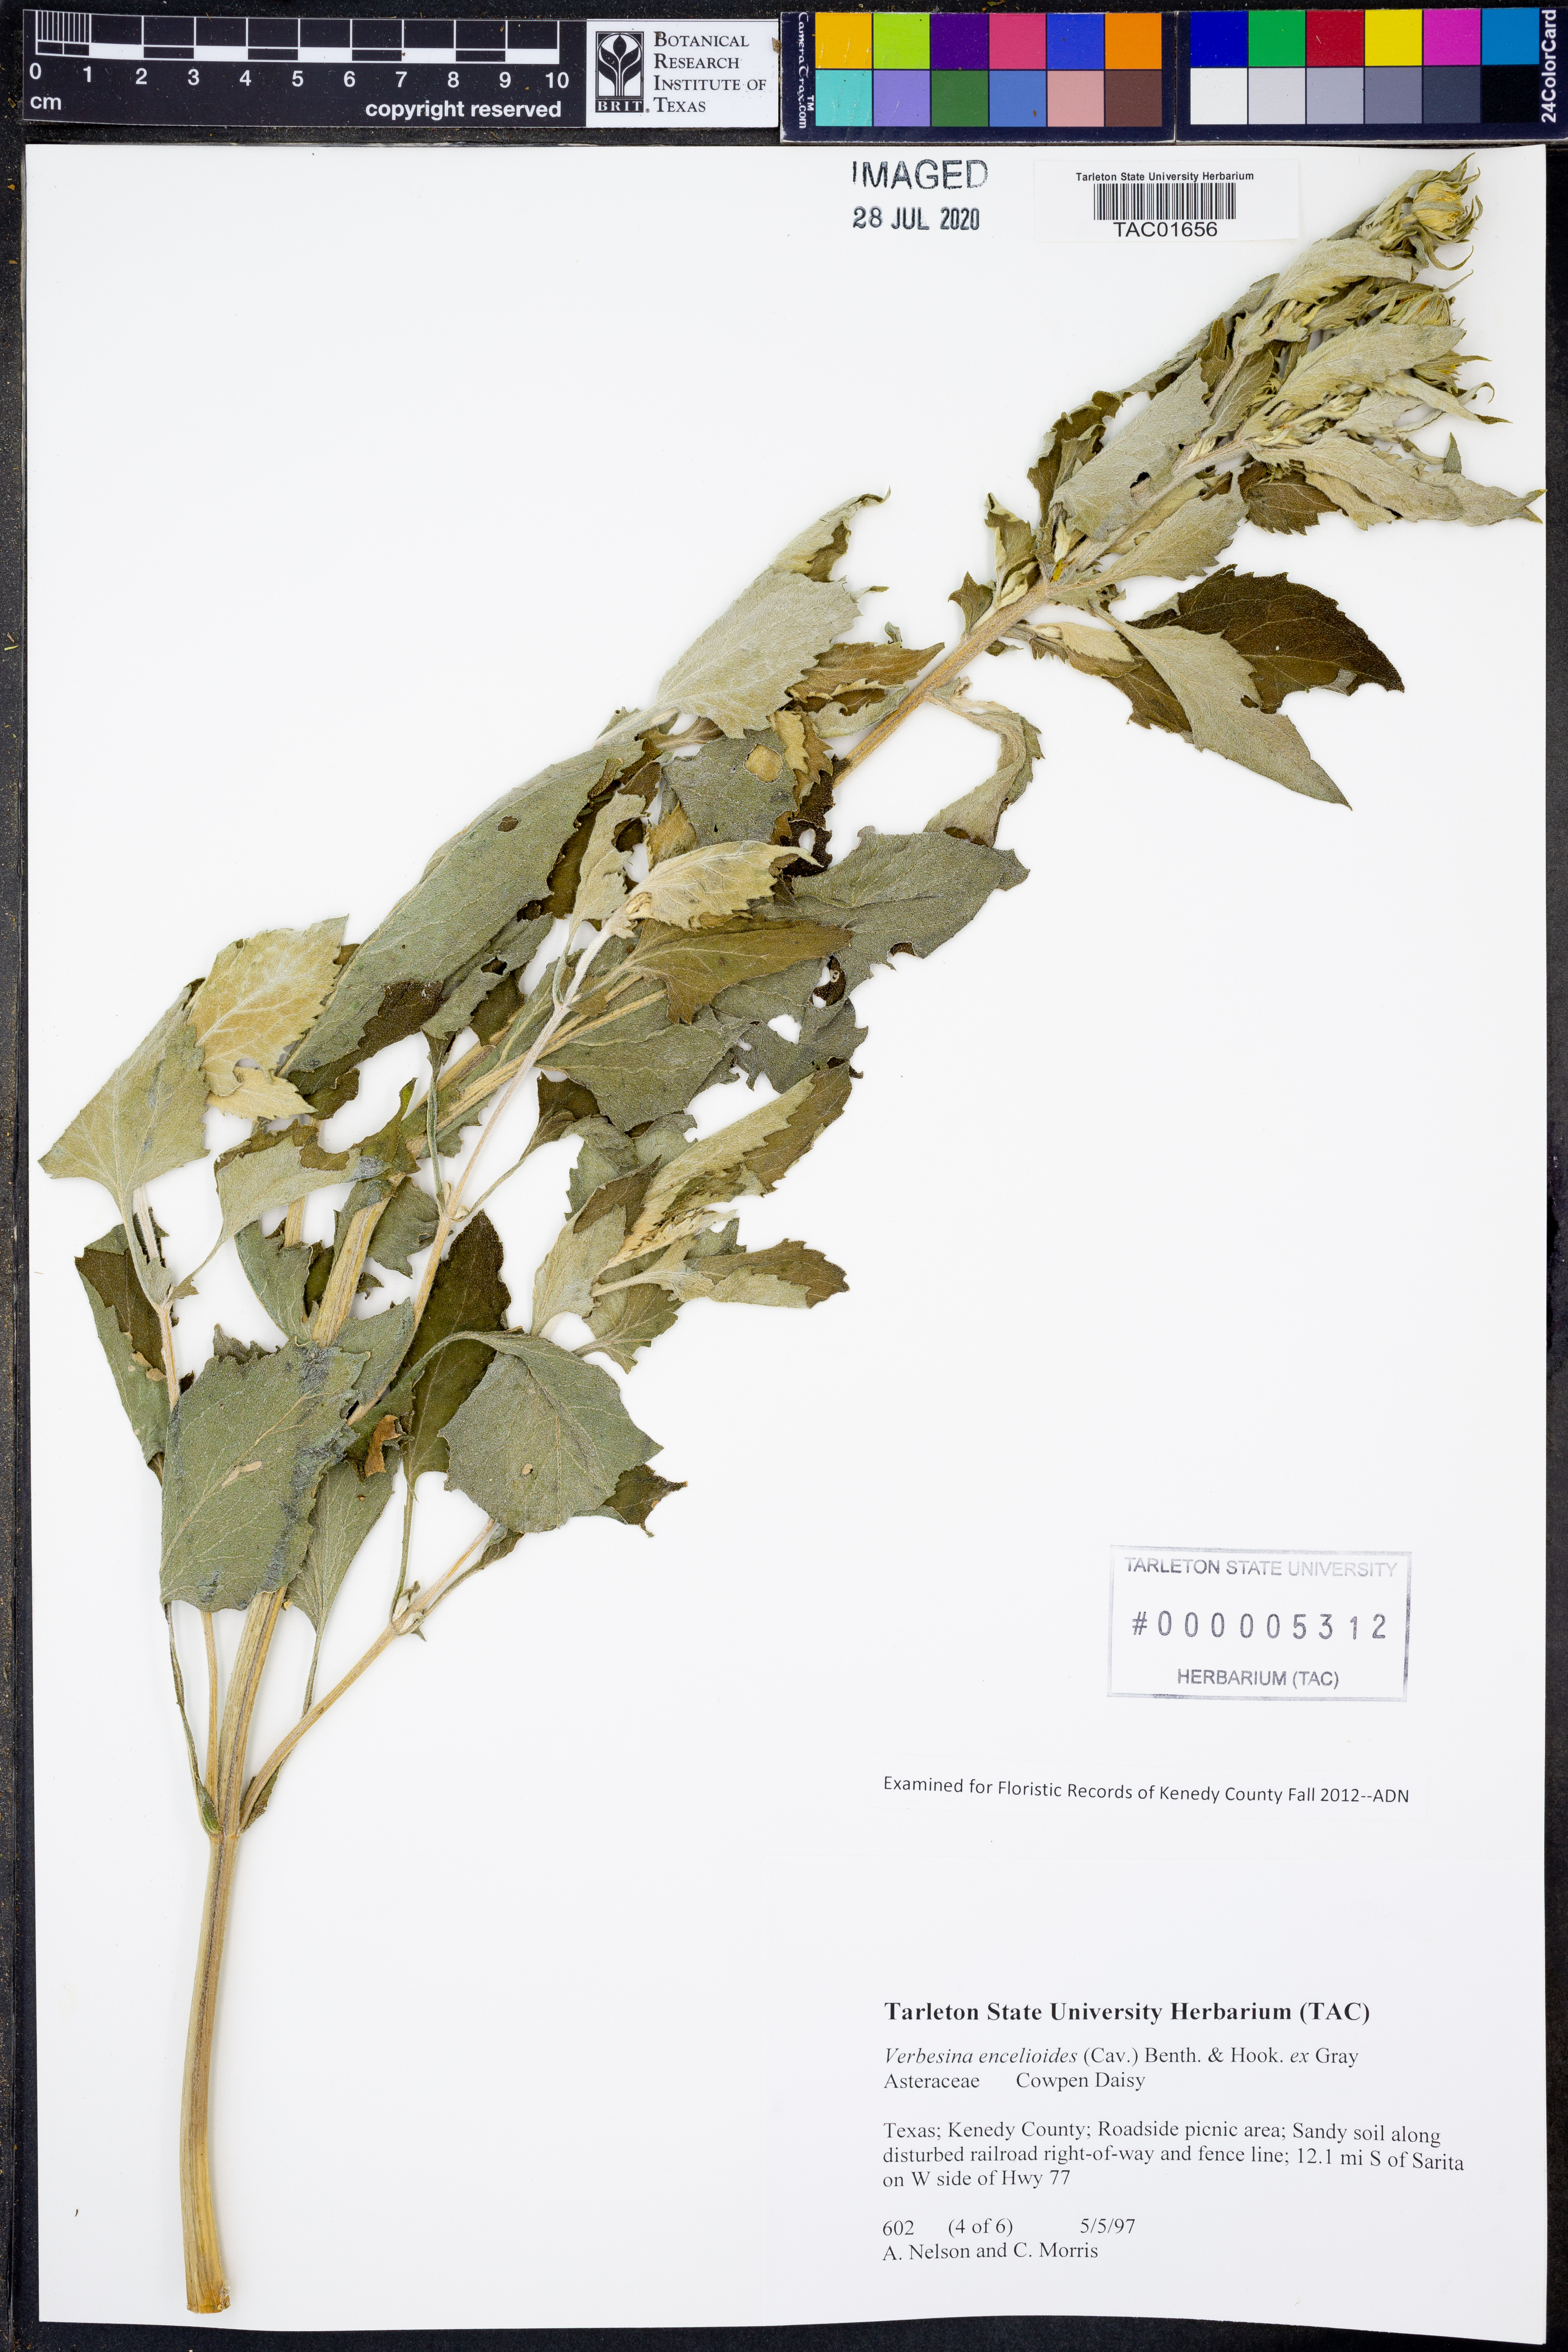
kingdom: Plantae
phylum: Tracheophyta
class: Magnoliopsida
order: Asterales
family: Asteraceae
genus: Verbesina
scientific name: Verbesina encelioides
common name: Golden crownbeard
